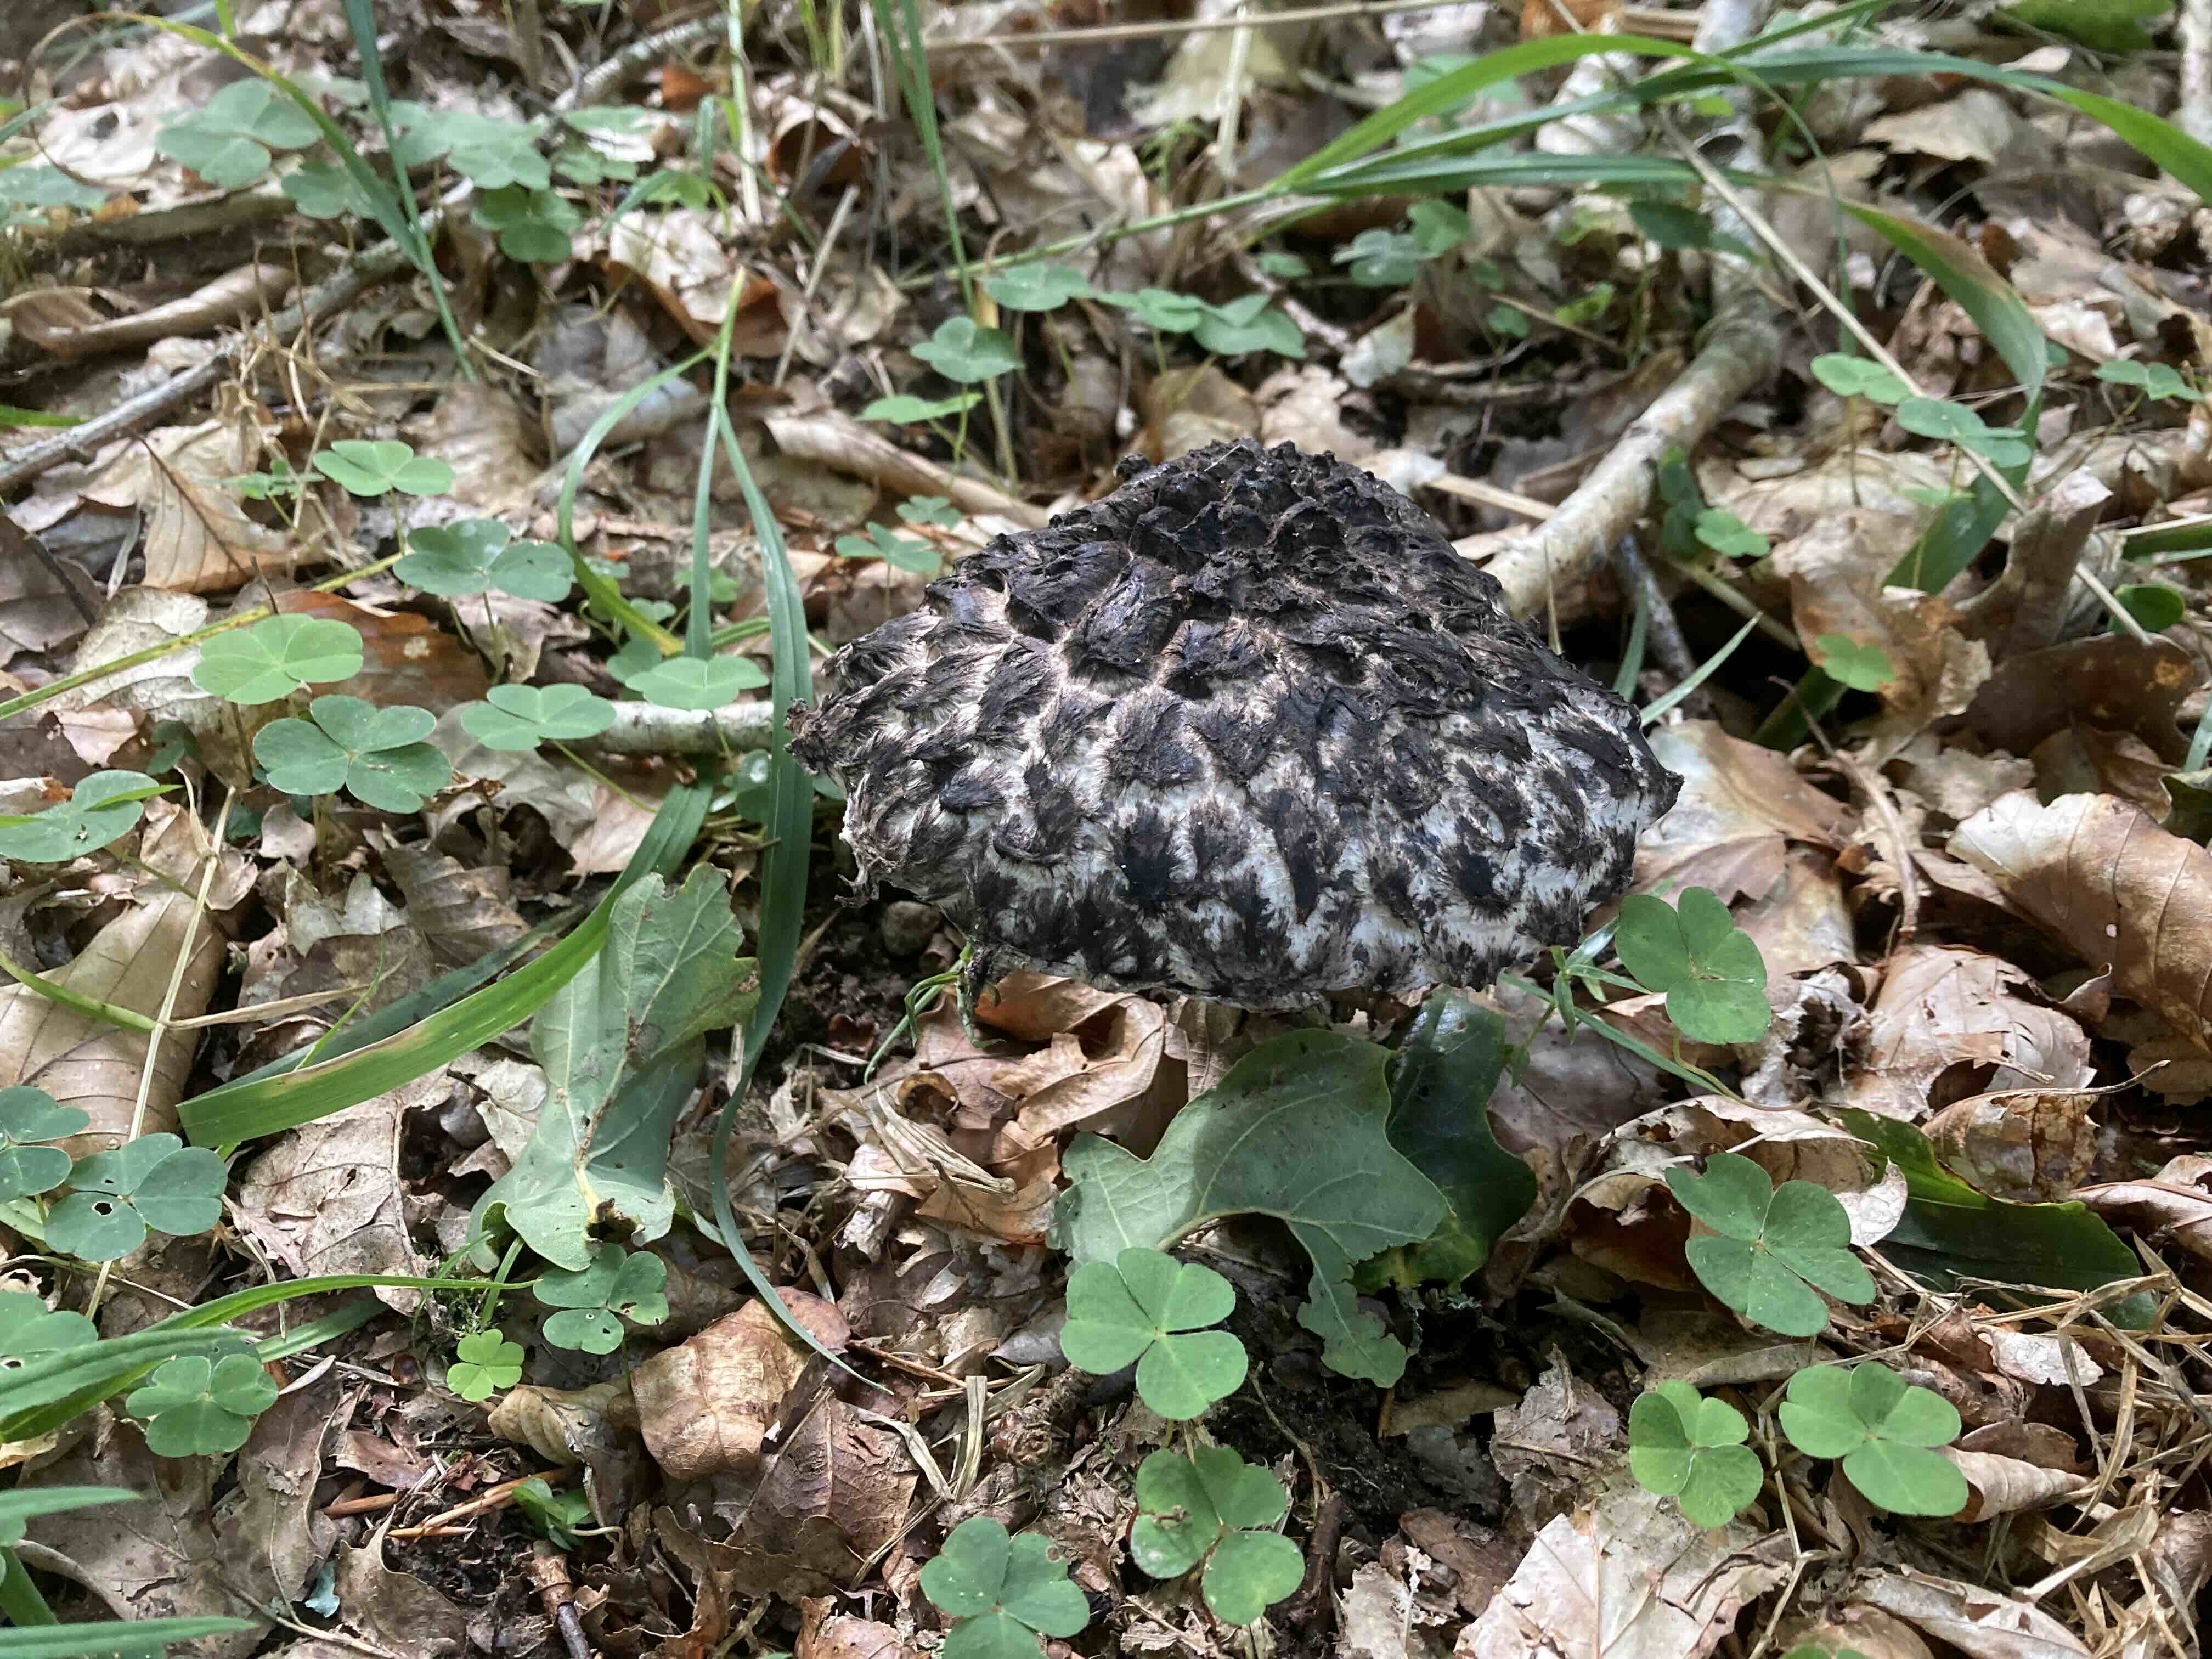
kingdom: Fungi
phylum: Basidiomycota
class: Agaricomycetes
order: Boletales
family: Boletaceae
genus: Strobilomyces
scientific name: Strobilomyces strobilaceus
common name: koglerørhat
